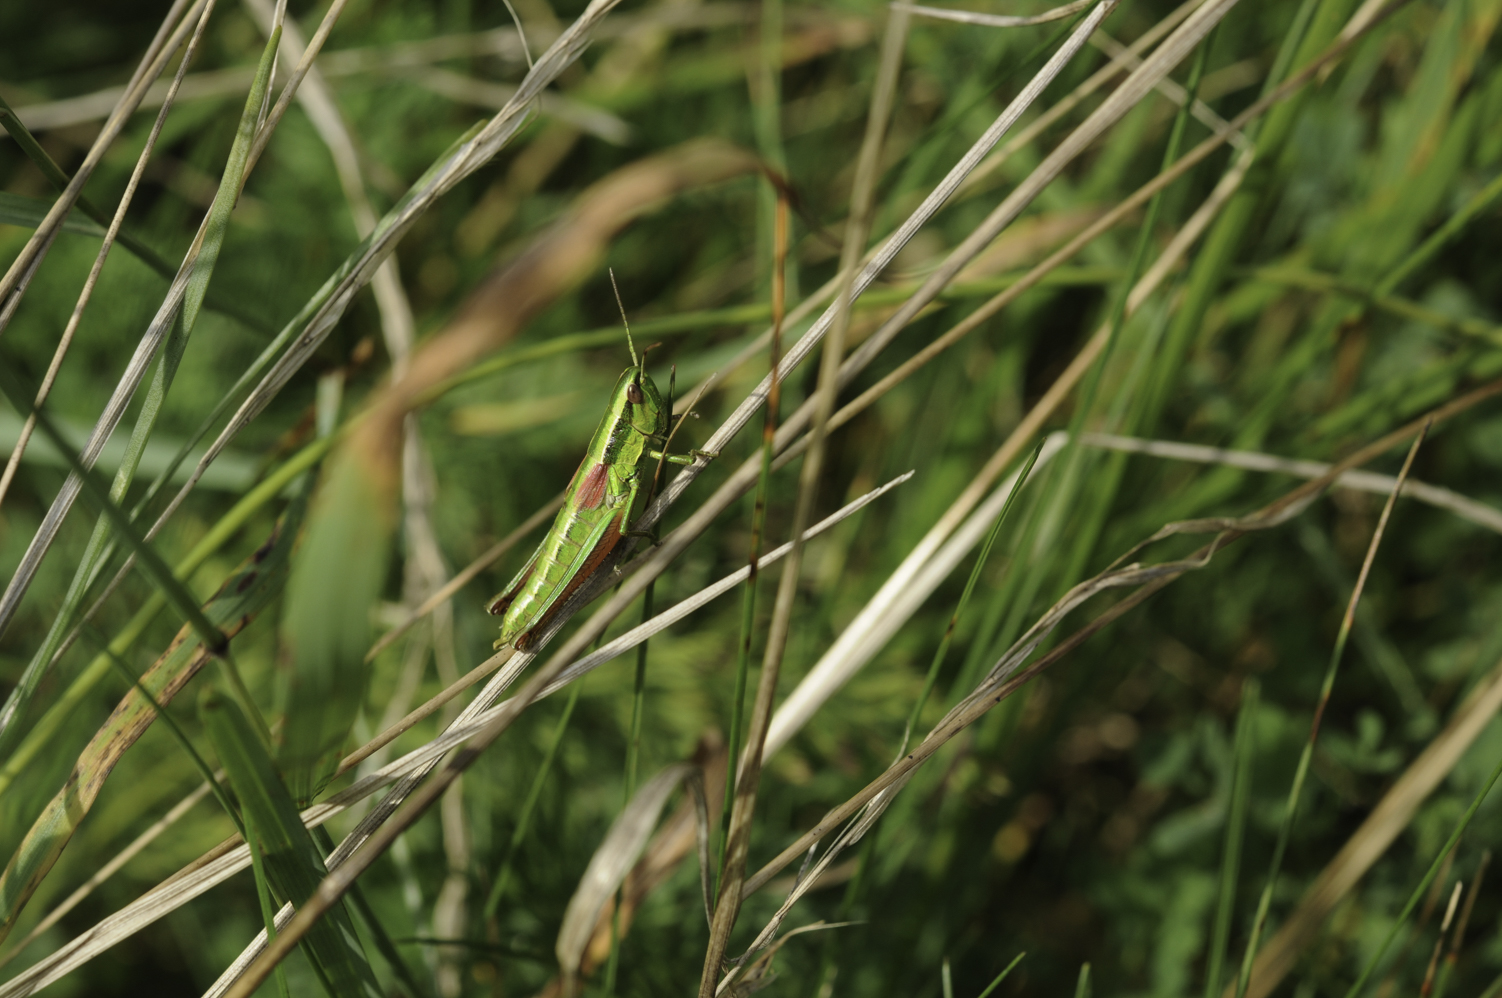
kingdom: Animalia
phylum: Arthropoda
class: Insecta
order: Orthoptera
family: Acrididae
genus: Euthystira
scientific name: Euthystira brachyptera
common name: Small gold grasshopper
